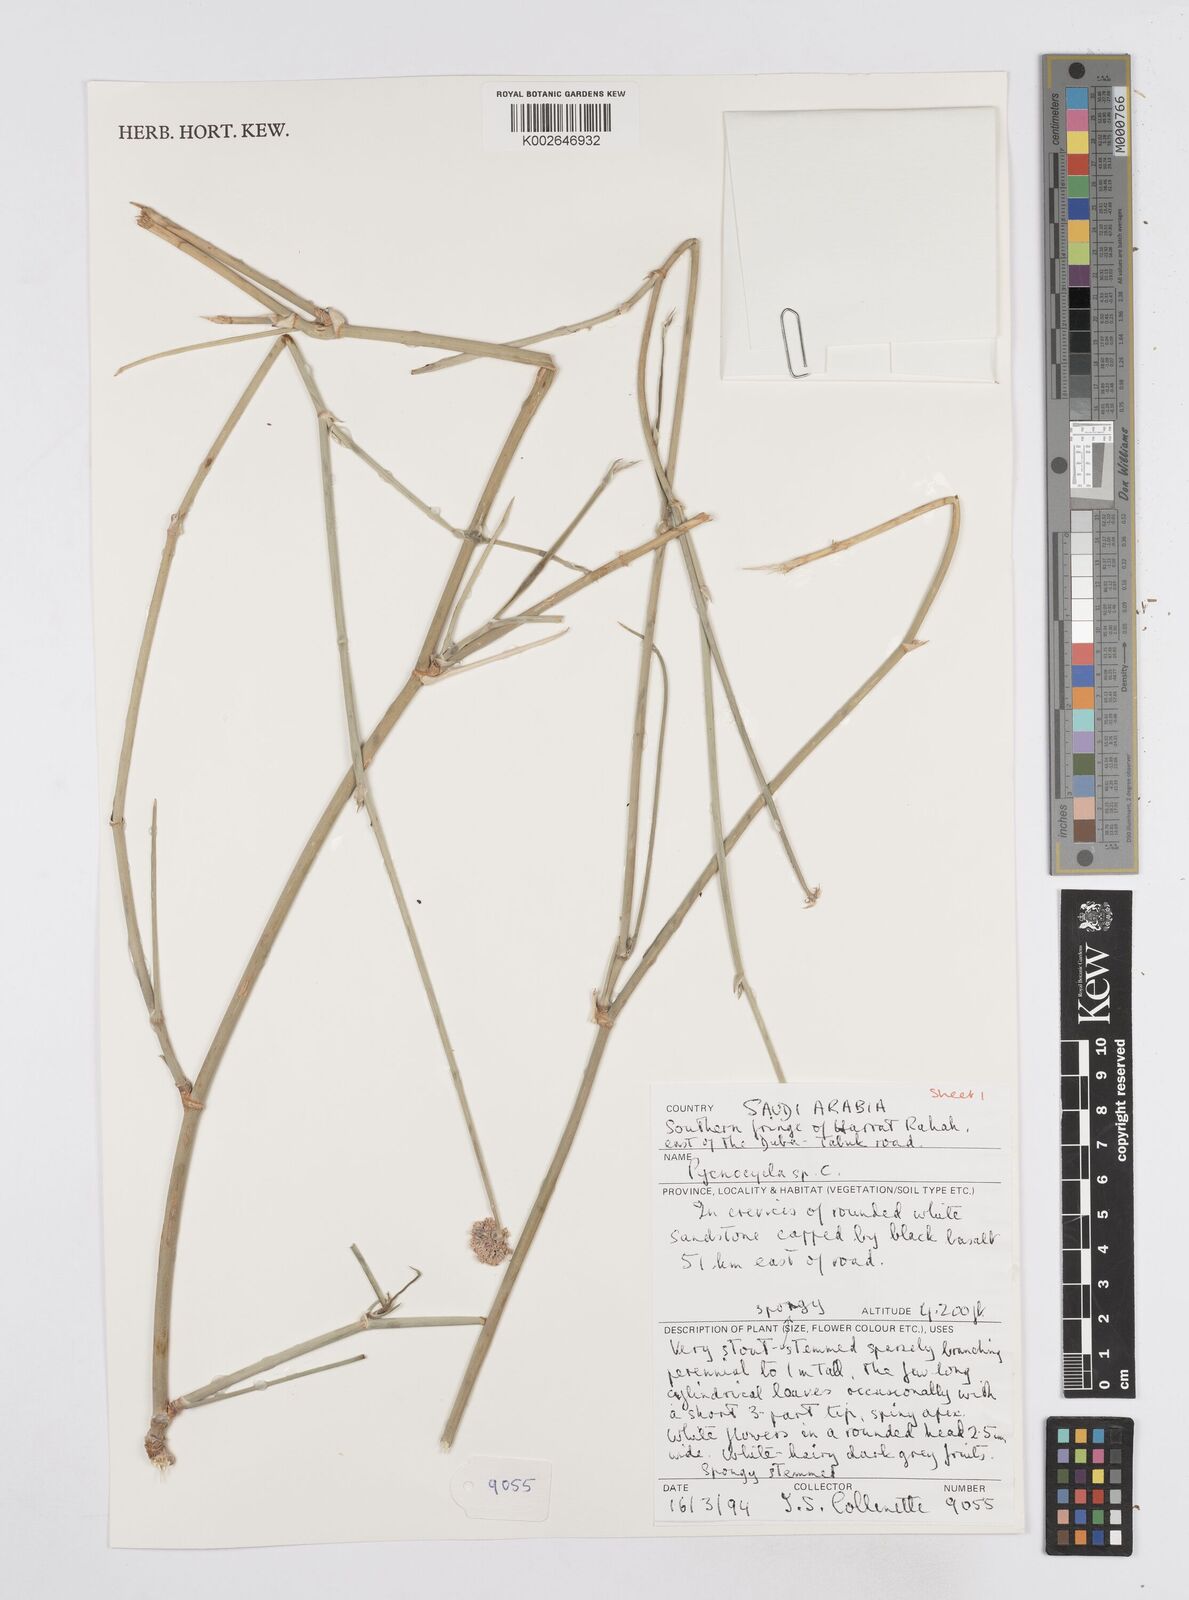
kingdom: Plantae
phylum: Tracheophyta
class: Magnoliopsida
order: Apiales
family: Apiaceae
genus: Pycnocycla
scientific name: Pycnocycla
